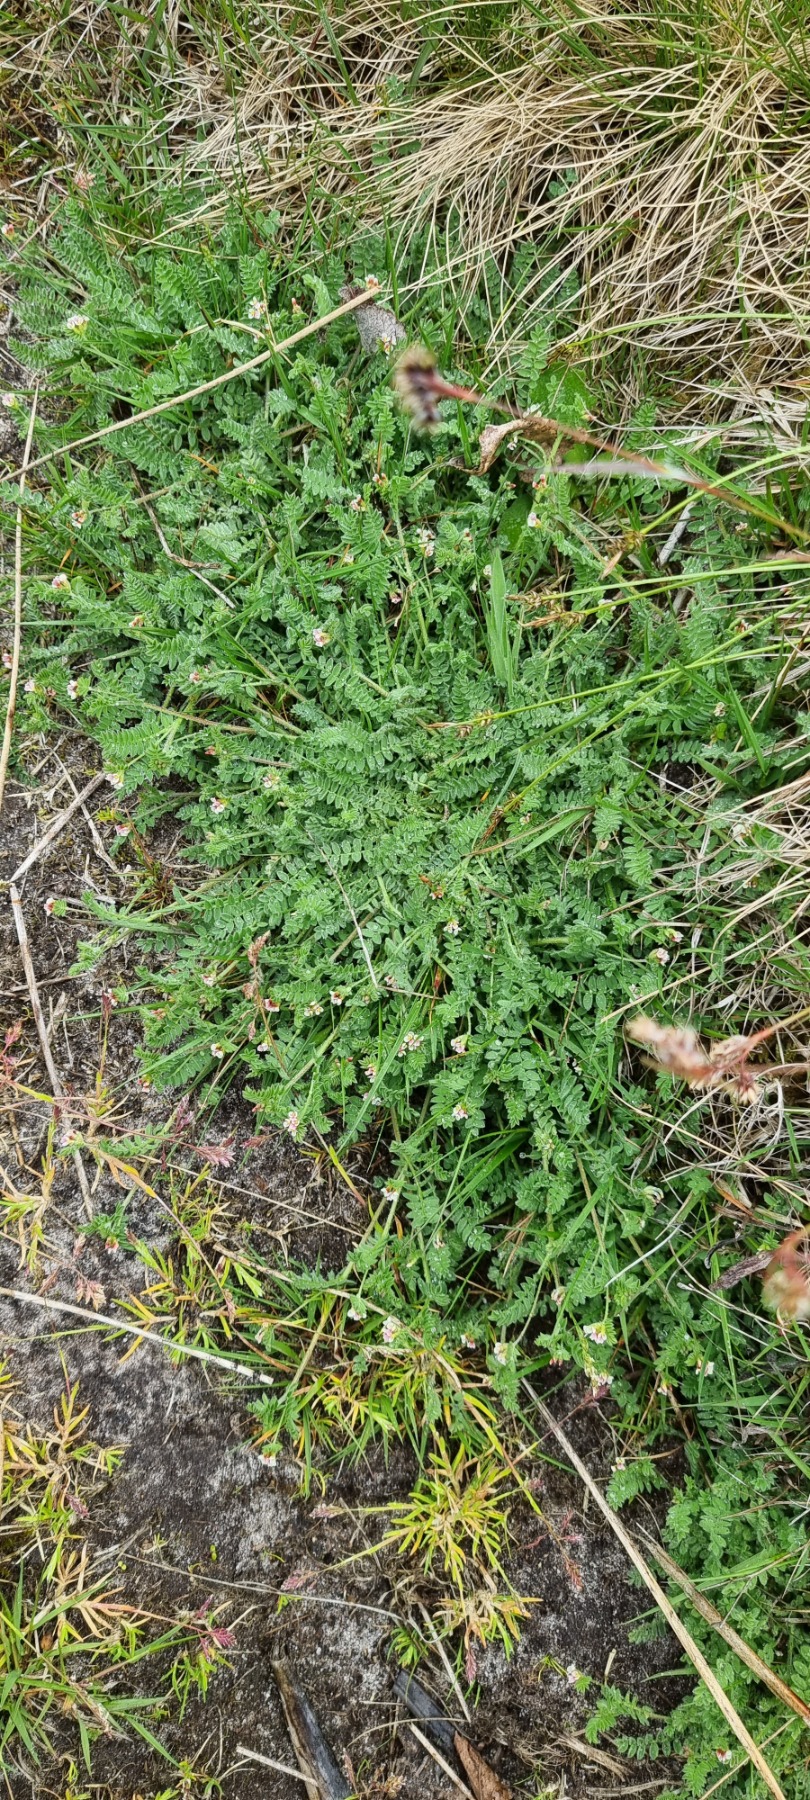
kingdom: Plantae
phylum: Tracheophyta
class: Magnoliopsida
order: Fabales
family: Fabaceae
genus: Ornithopus
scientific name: Ornithopus perpusillus
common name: Liden fugleklo
